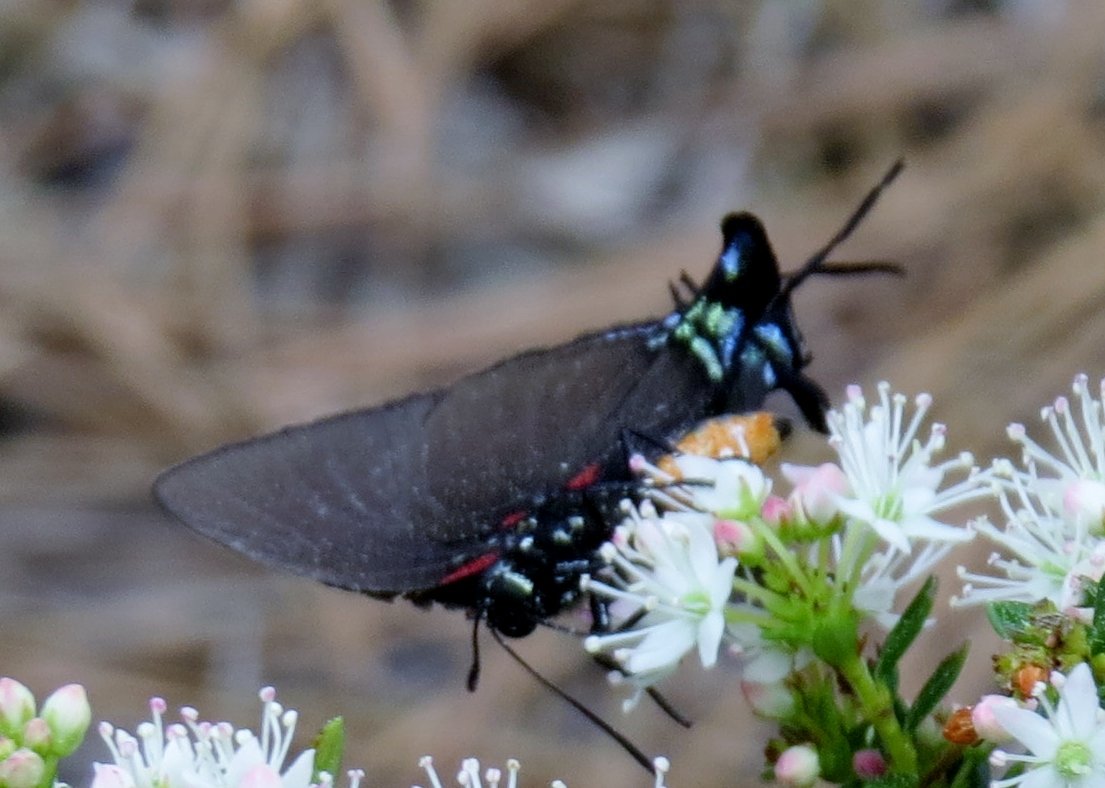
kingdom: Animalia
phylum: Arthropoda
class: Insecta
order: Lepidoptera
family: Lycaenidae
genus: Atlides
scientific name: Atlides halesus
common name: Great Purple Hairstreak
